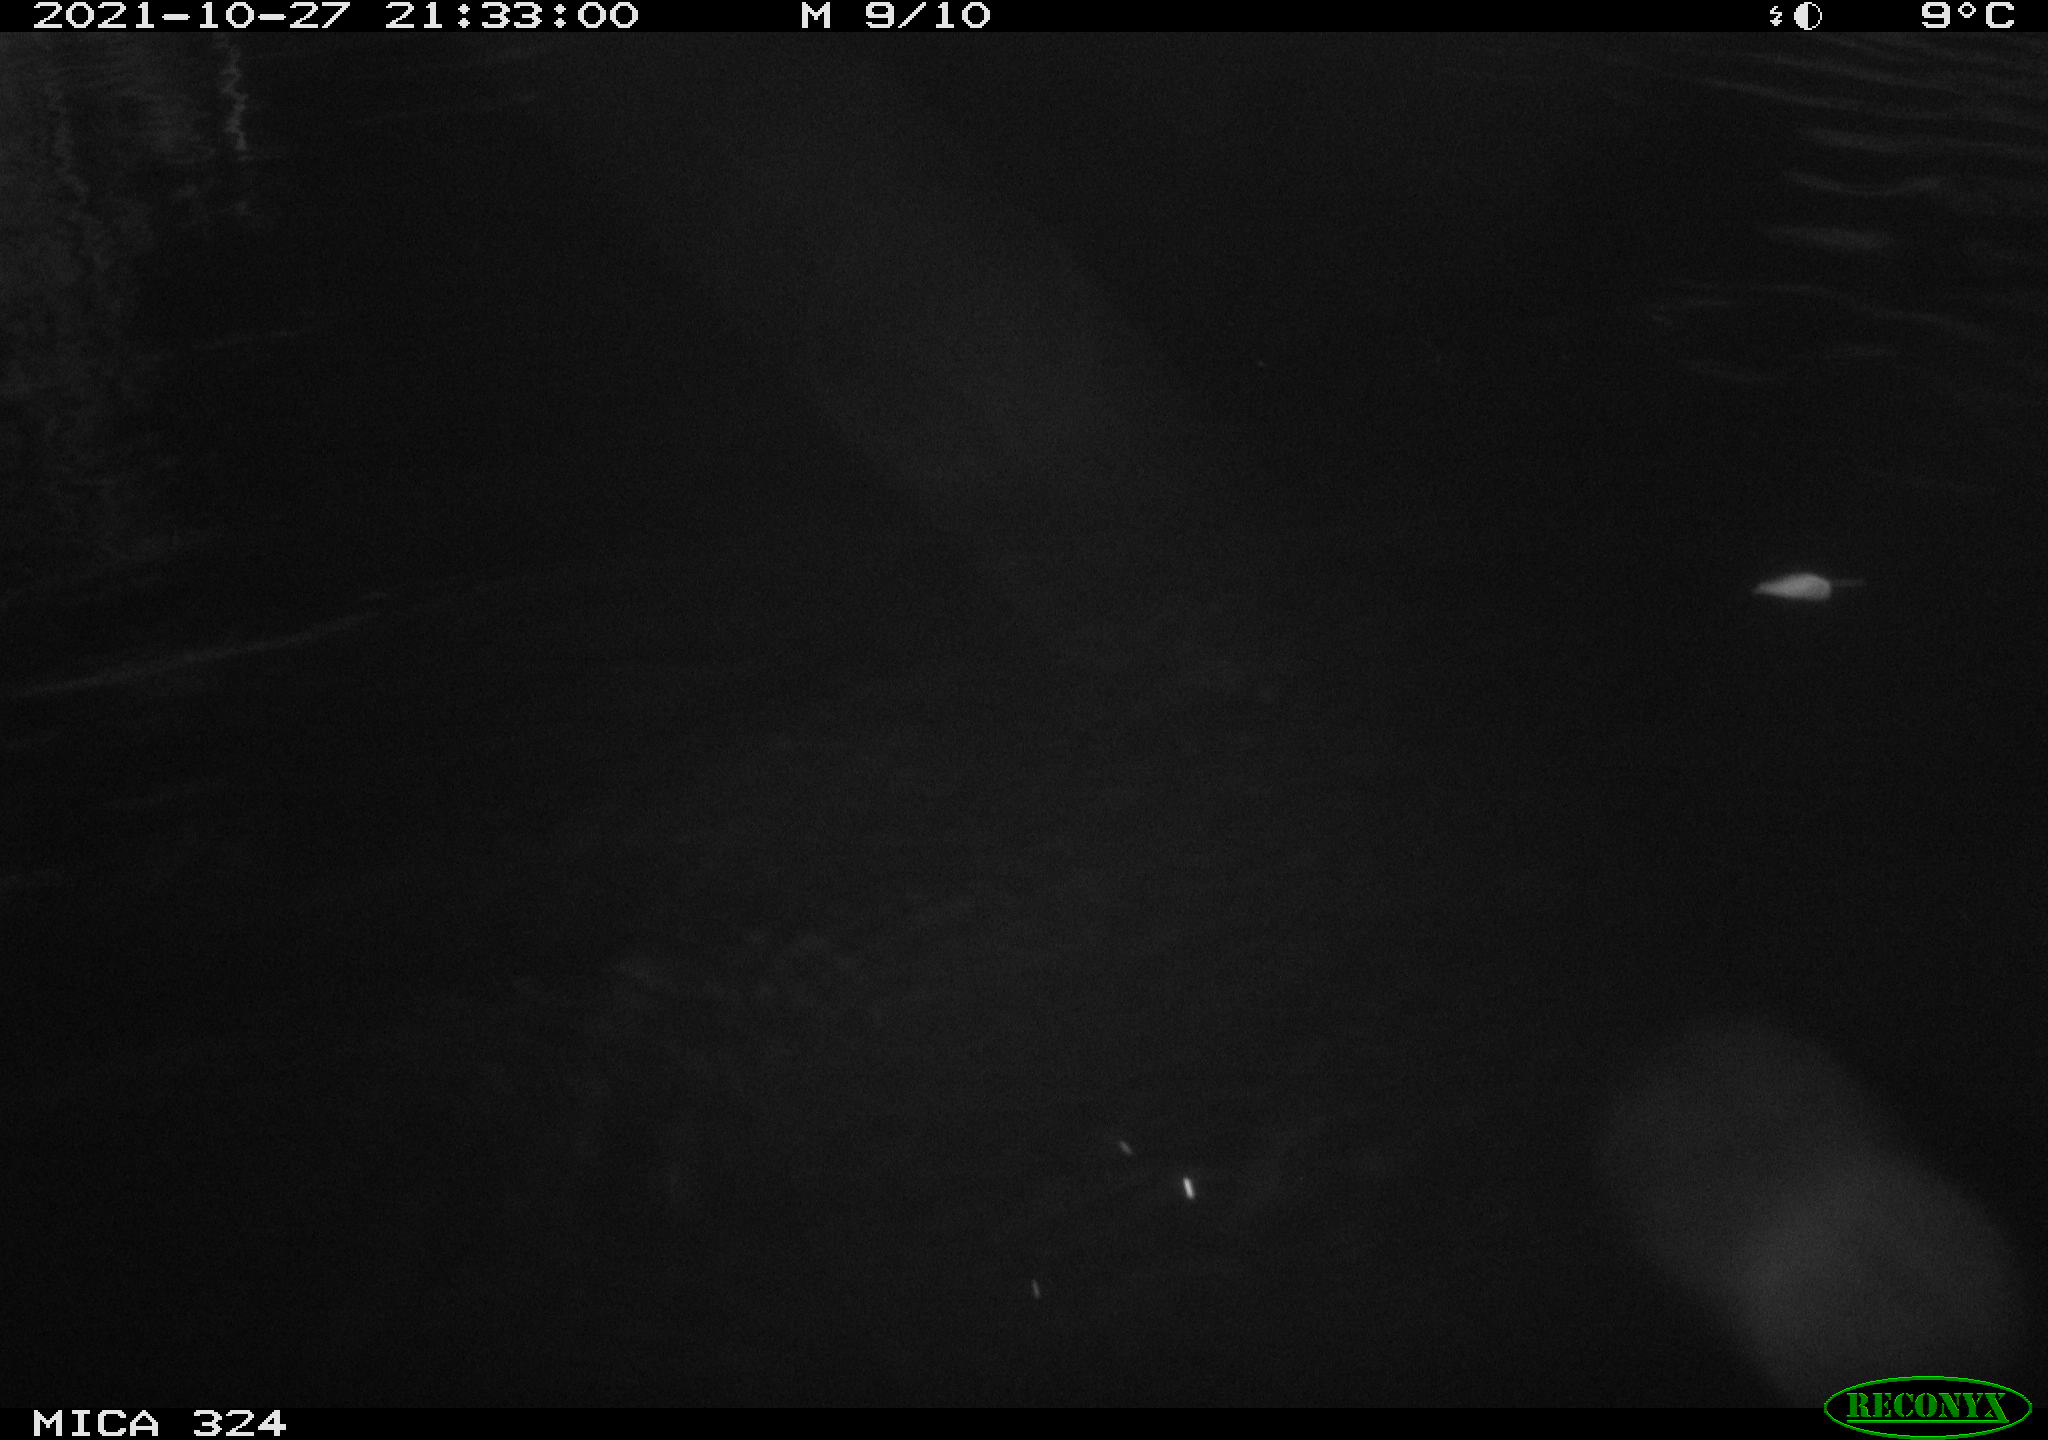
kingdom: Animalia
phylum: Chordata
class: Mammalia
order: Rodentia
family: Cricetidae
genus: Ondatra
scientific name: Ondatra zibethicus
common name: Muskrat
